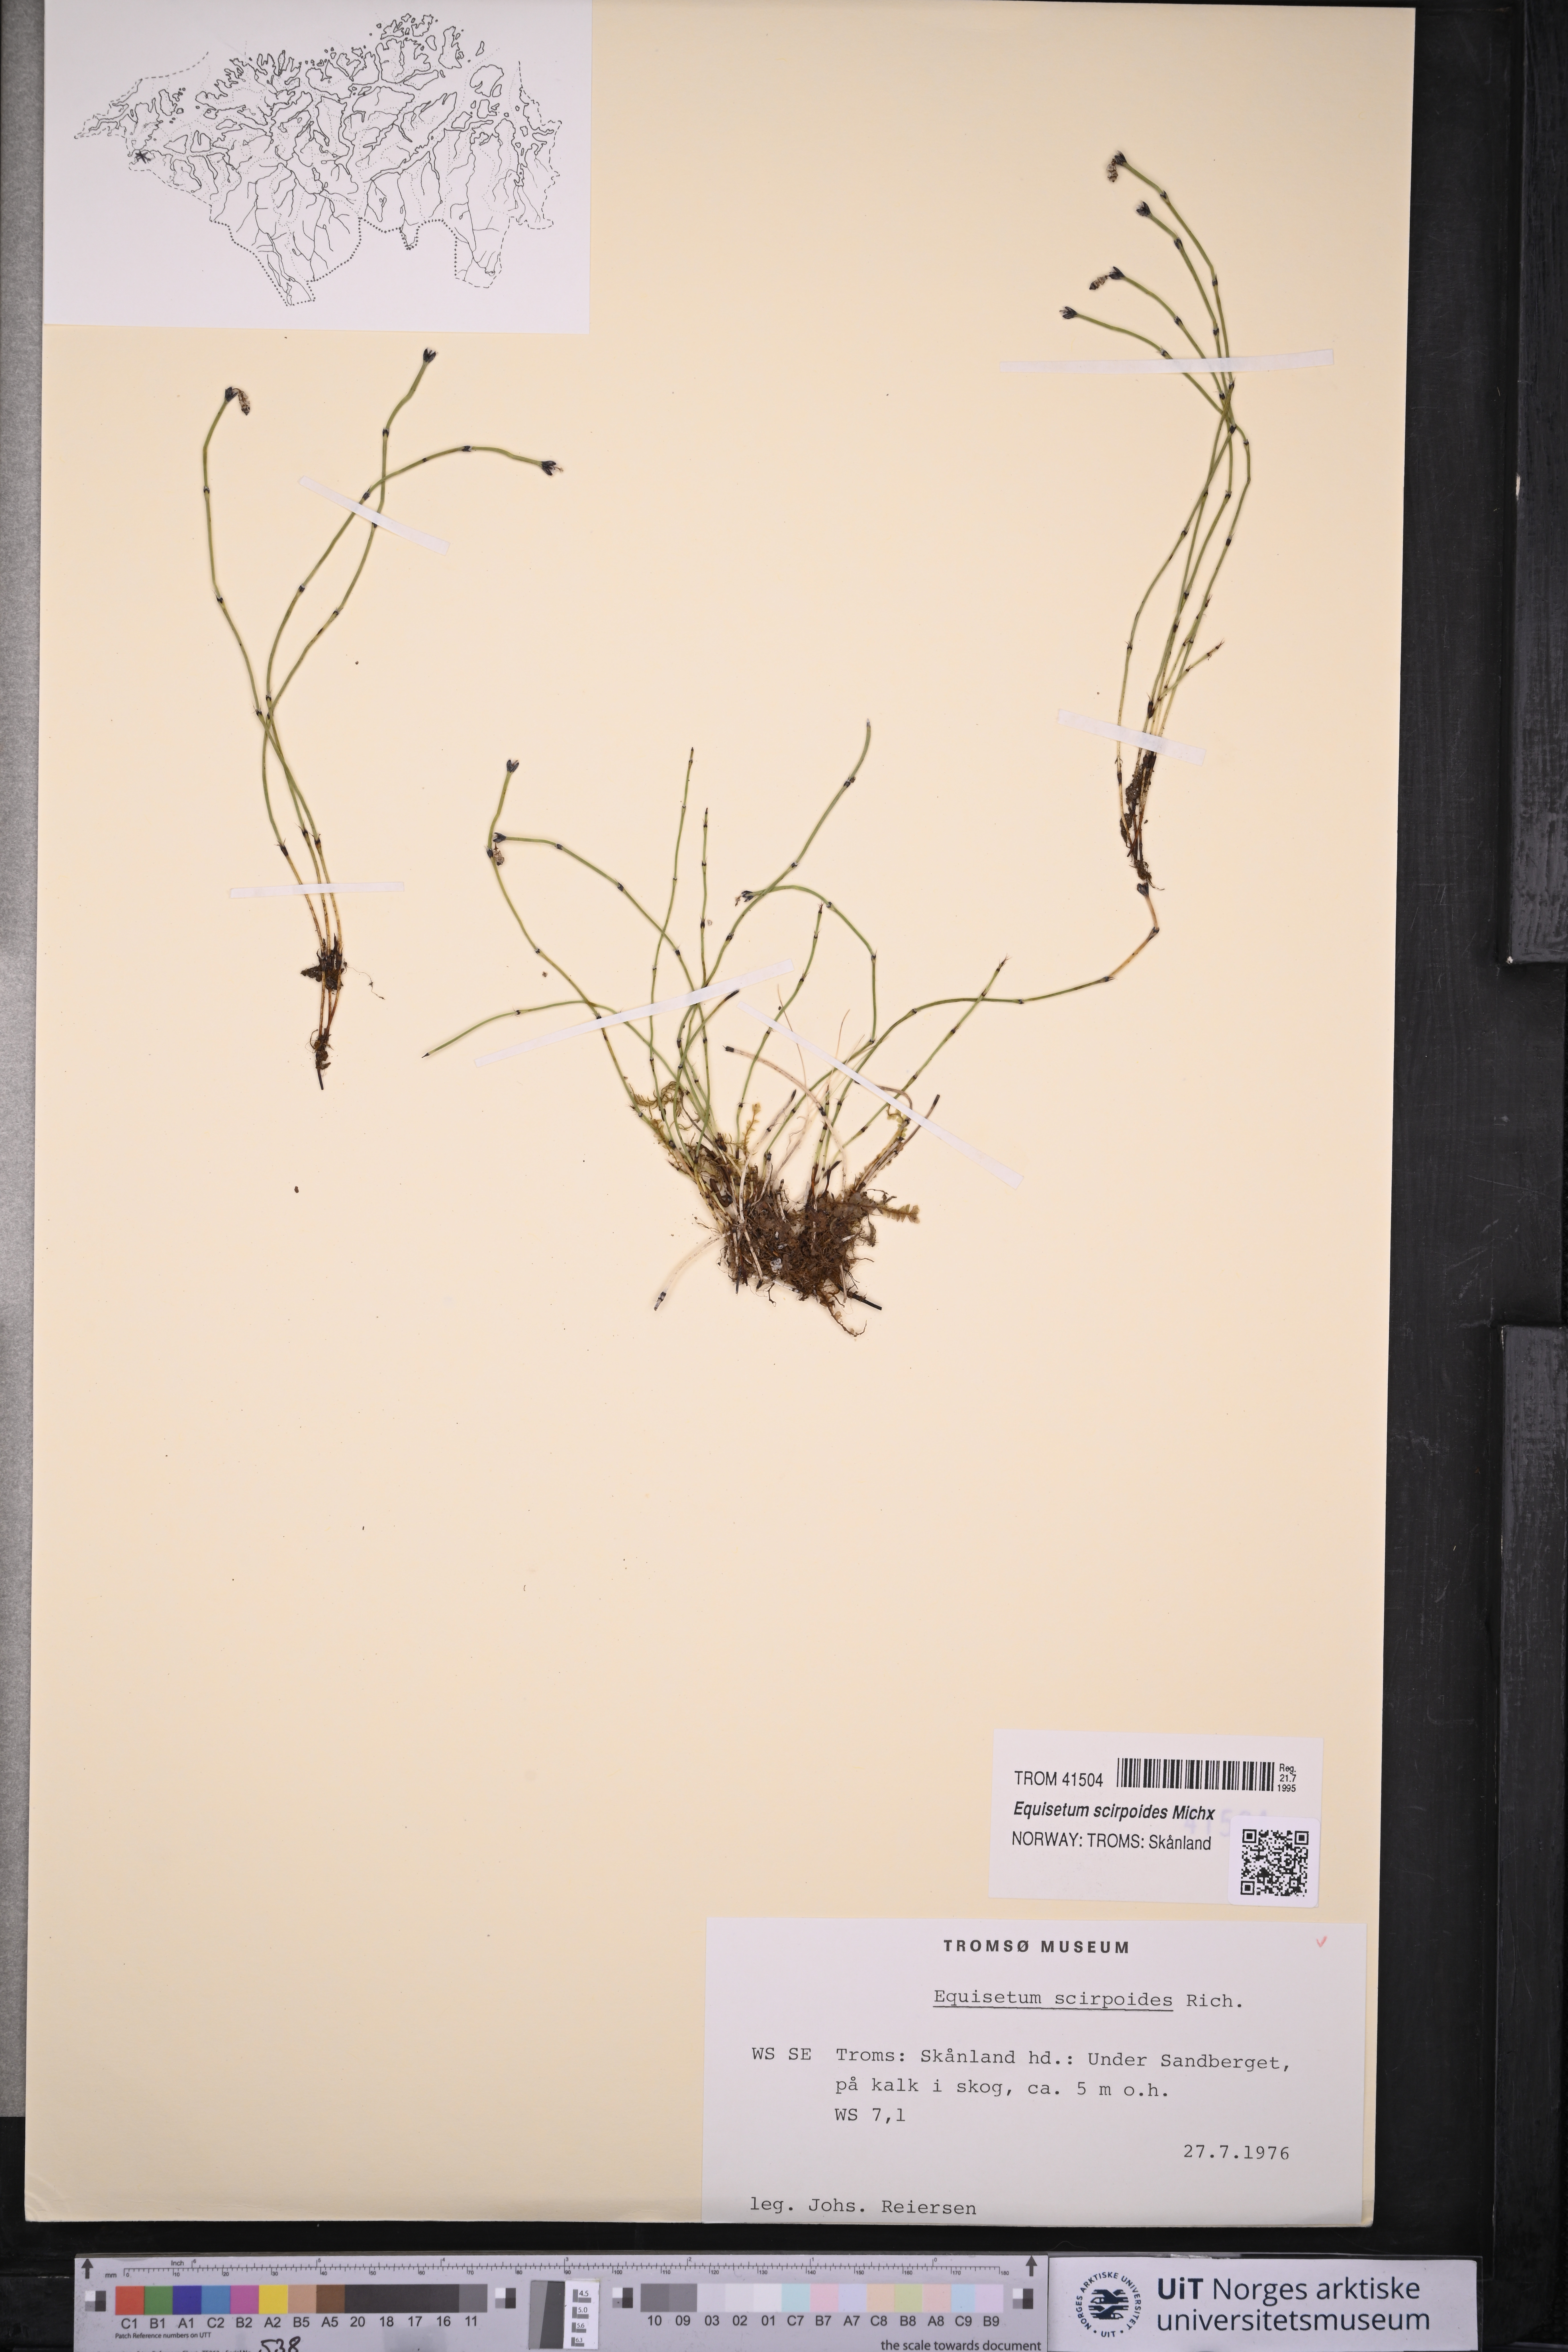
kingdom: Plantae
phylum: Tracheophyta
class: Polypodiopsida
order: Equisetales
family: Equisetaceae
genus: Equisetum
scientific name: Equisetum scirpoides
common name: Delicate horsetail
